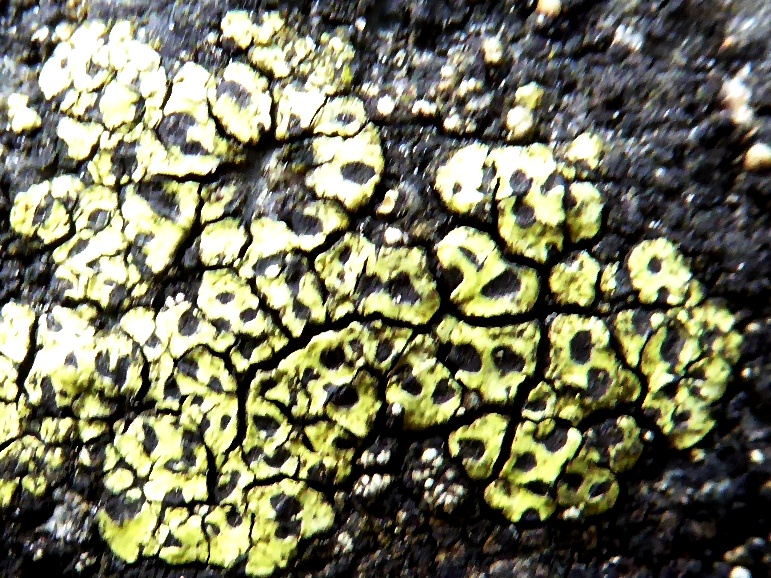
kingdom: Fungi
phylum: Ascomycota
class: Lecanoromycetes
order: Rhizocarpales
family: Rhizocarpaceae
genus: Rhizocarpon
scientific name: Rhizocarpon lecanorinum
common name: krave-landkortlav
